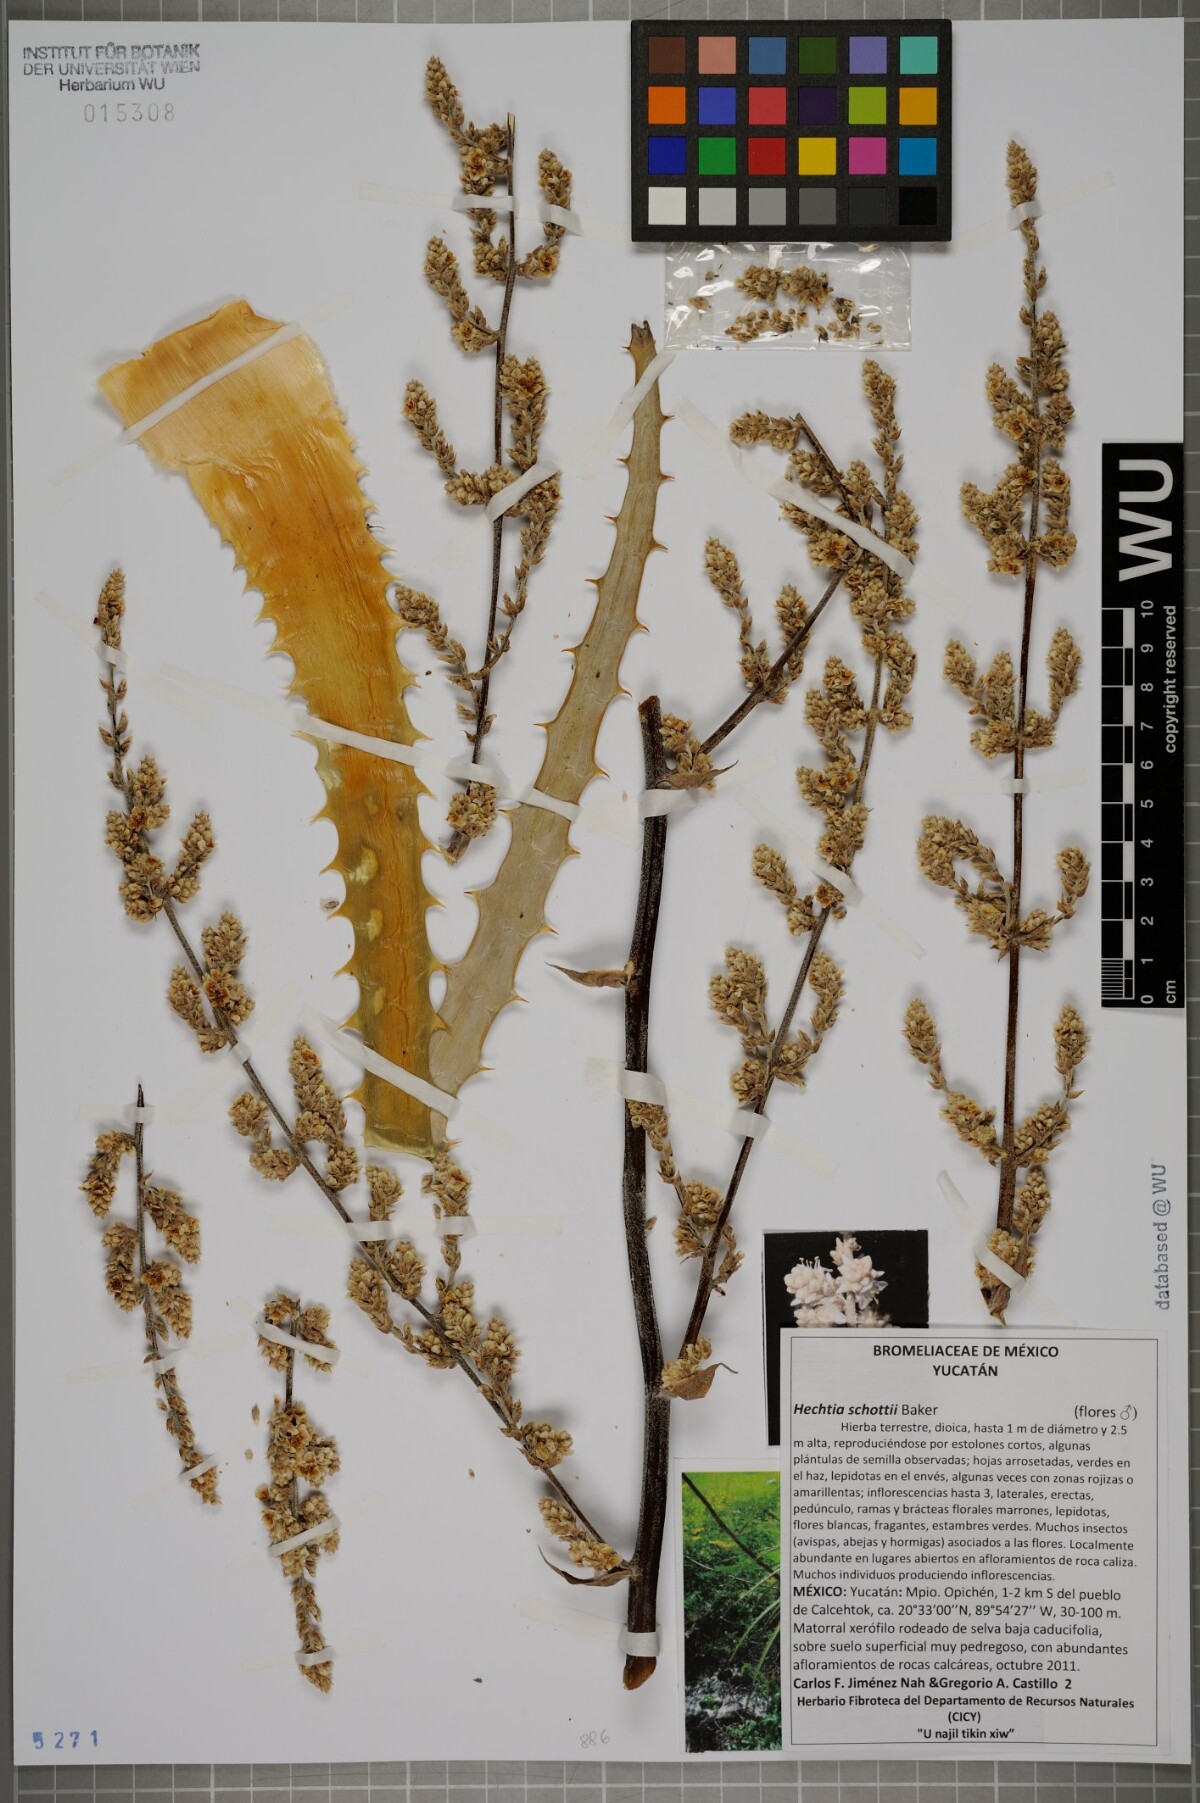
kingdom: Plantae
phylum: Tracheophyta
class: Liliopsida
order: Poales
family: Bromeliaceae
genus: Hechtia
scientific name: Hechtia schottii
